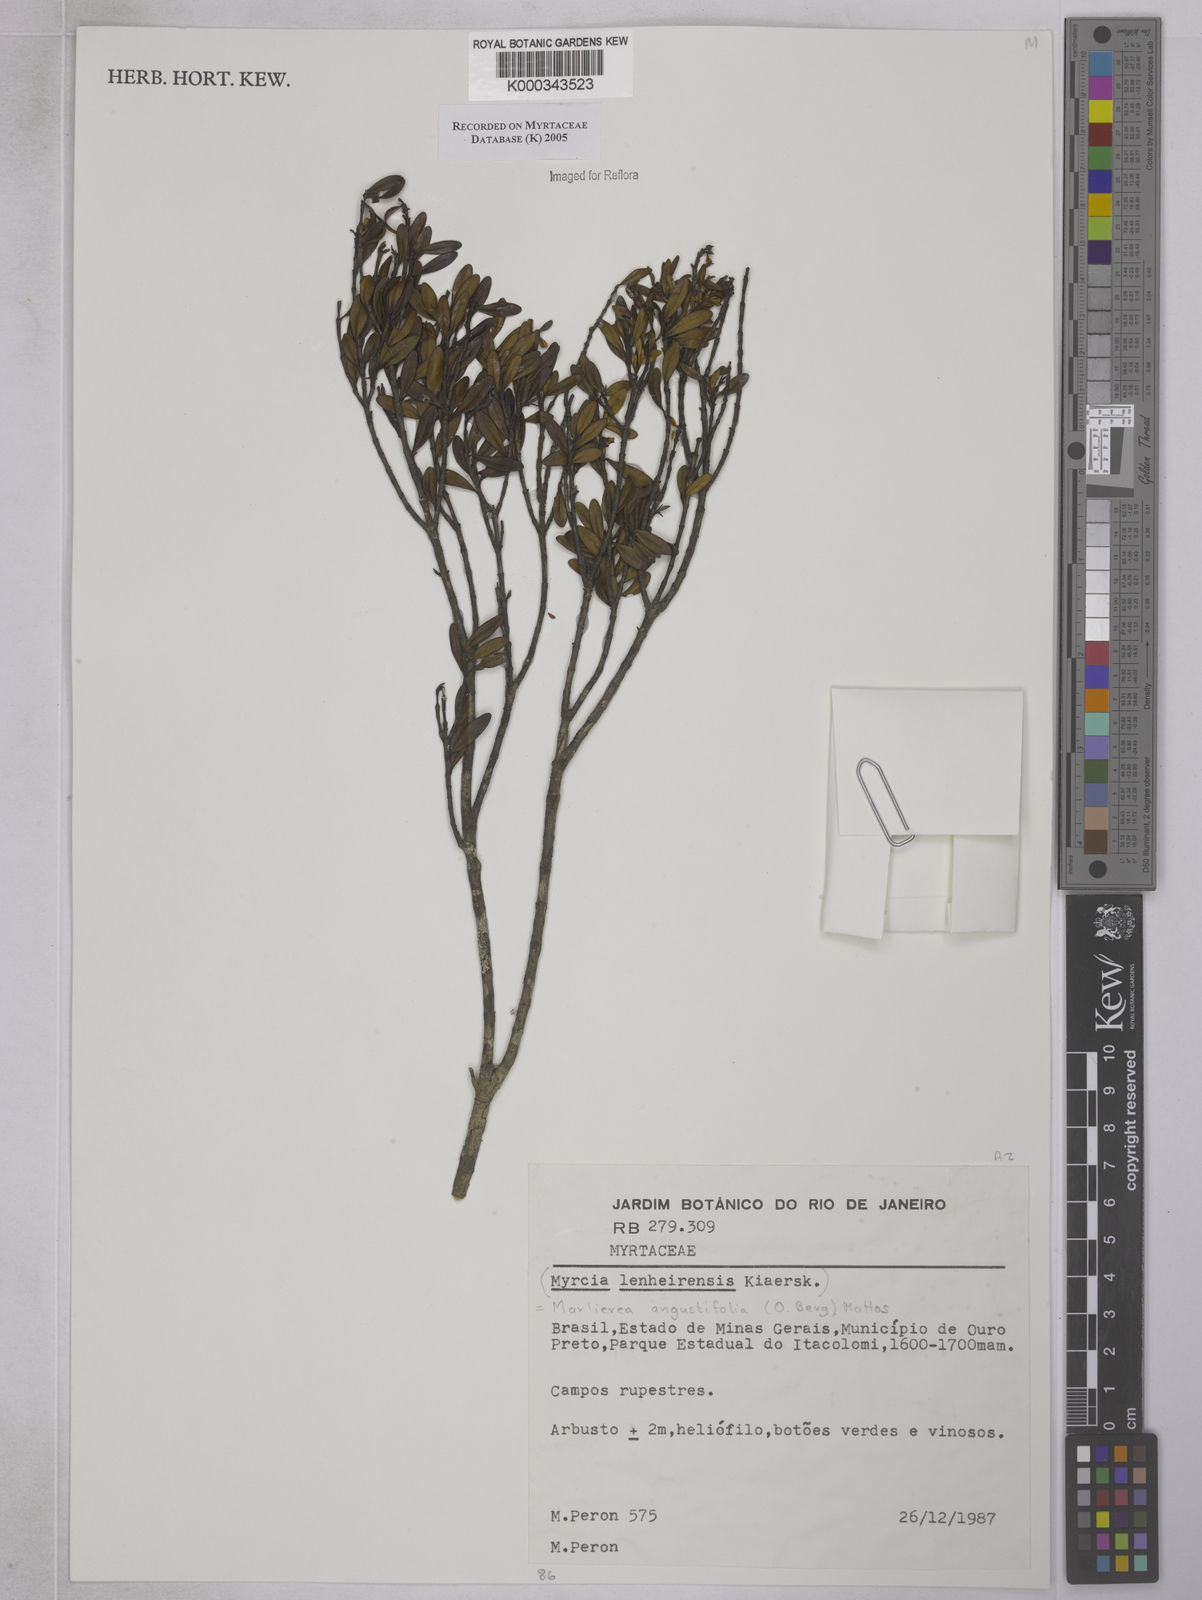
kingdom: Plantae
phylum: Tracheophyta
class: Magnoliopsida
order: Myrtales
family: Myrtaceae
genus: Myrcia
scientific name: Myrcia lenheirensis
